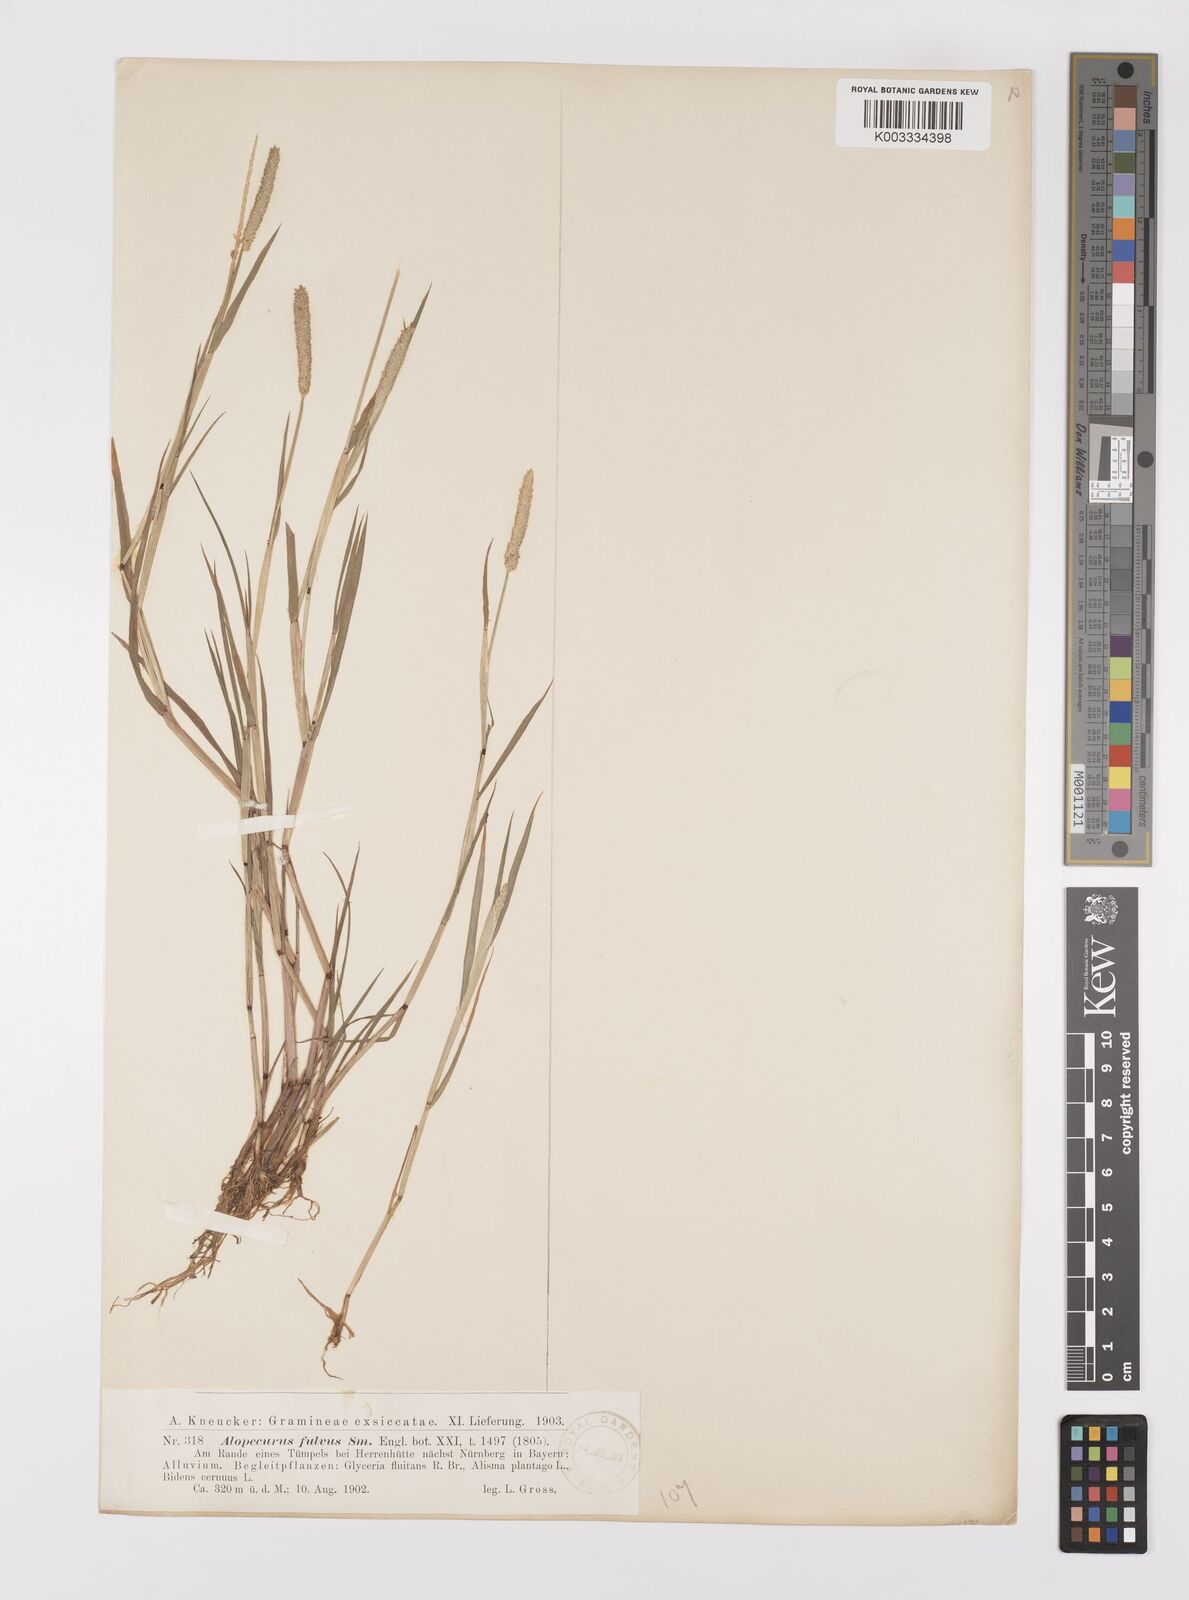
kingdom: Plantae
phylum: Tracheophyta
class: Liliopsida
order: Poales
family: Poaceae
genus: Alopecurus
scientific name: Alopecurus aequalis
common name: Orange foxtail
